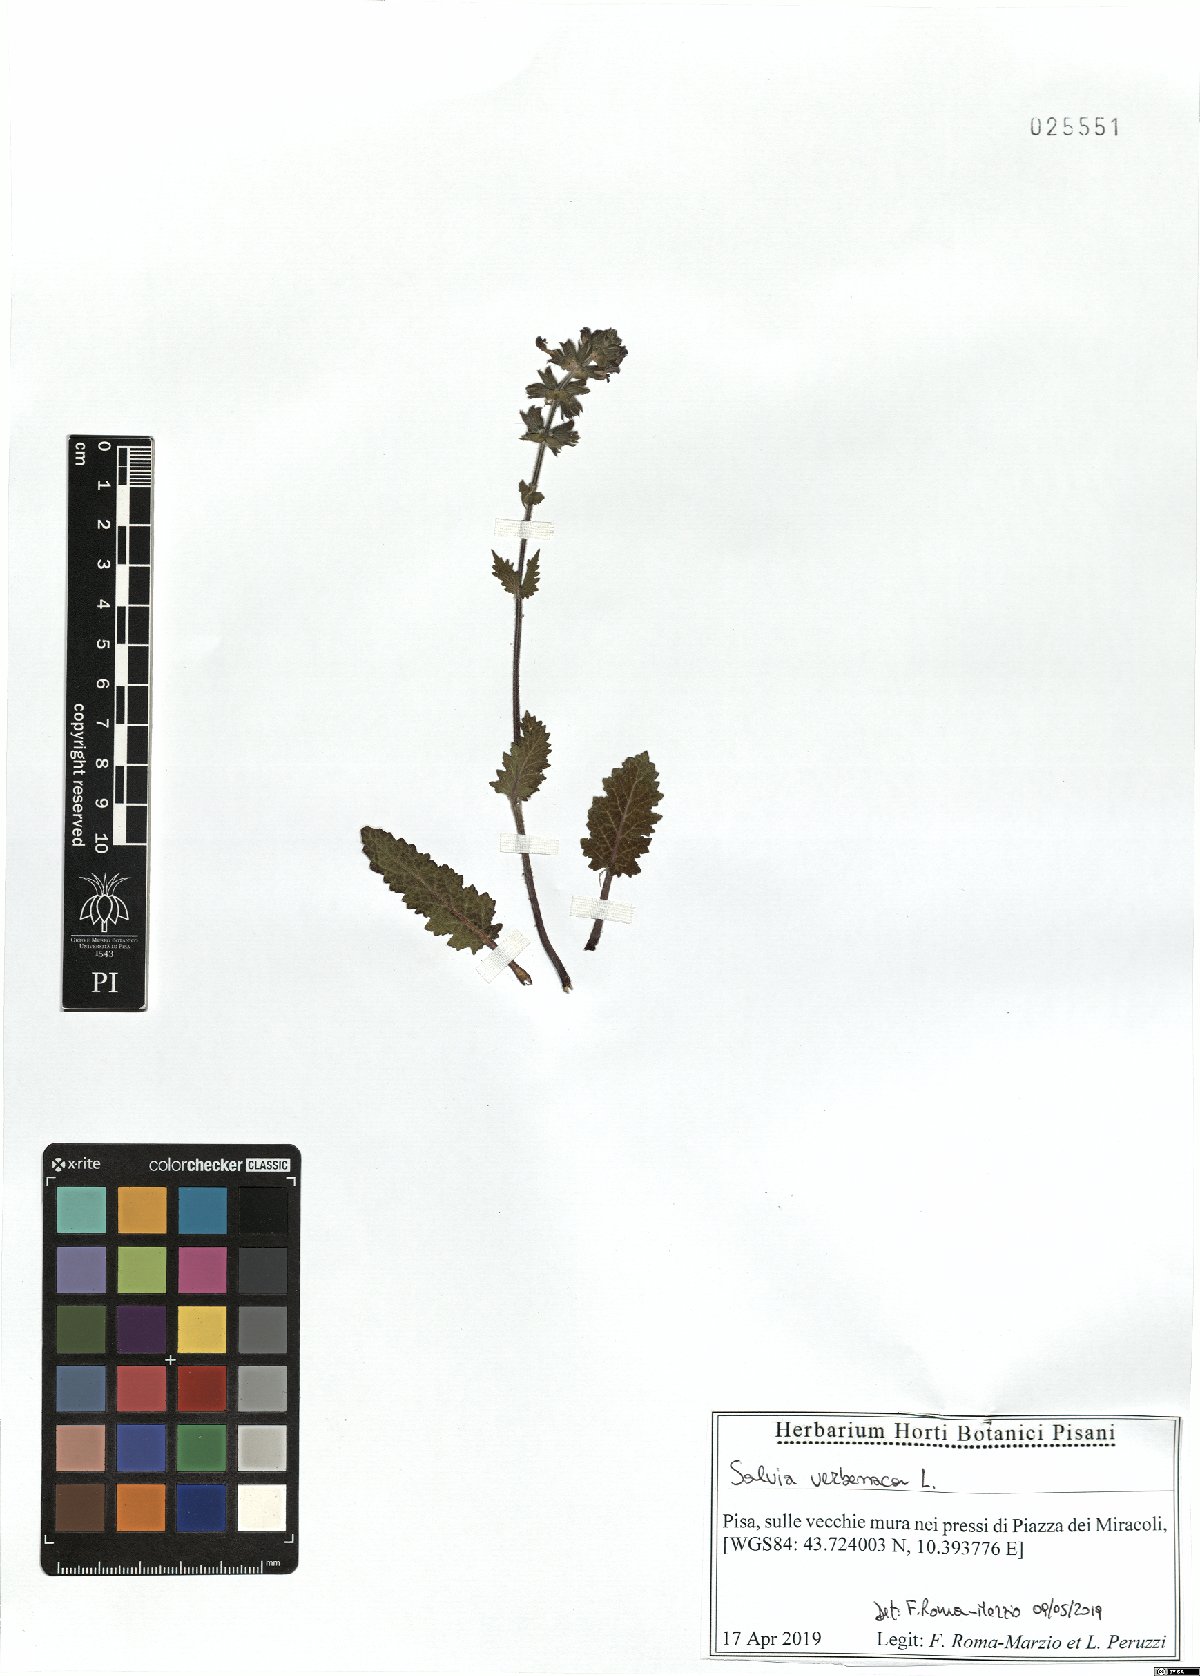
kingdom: Plantae
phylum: Tracheophyta
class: Magnoliopsida
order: Lamiales
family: Lamiaceae
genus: Salvia
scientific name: Salvia verbenaca
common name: Wild clary
